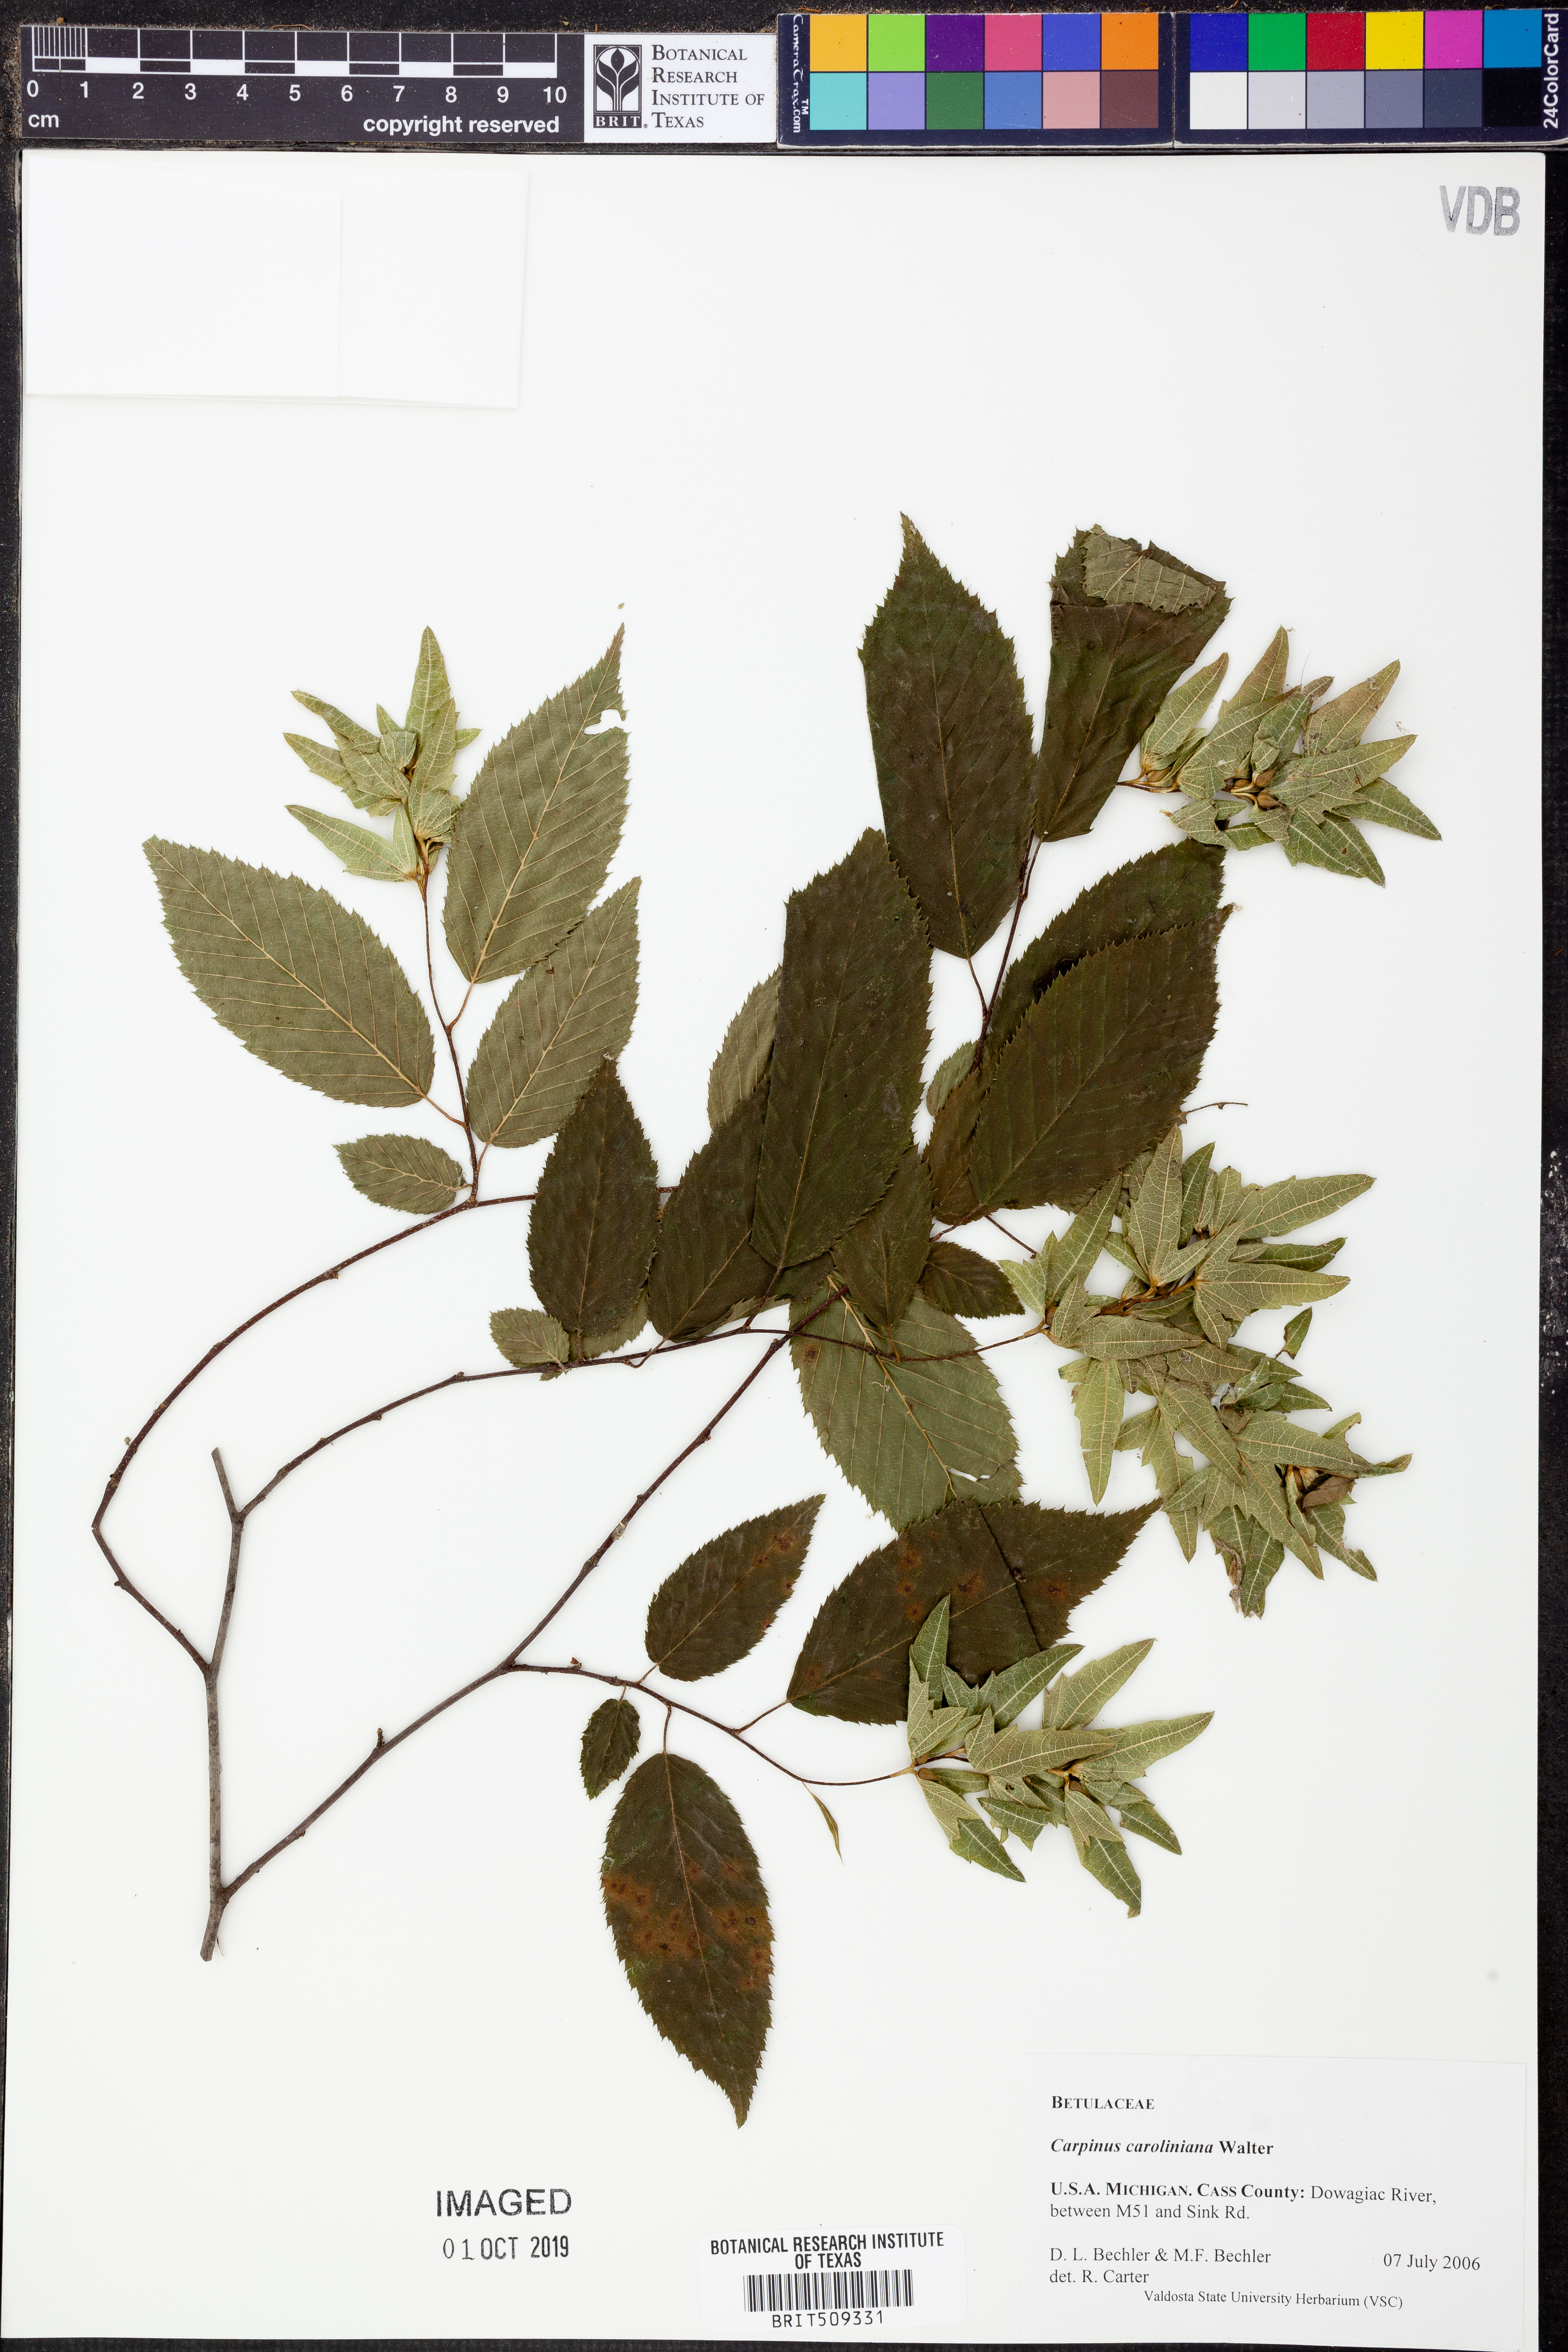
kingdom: Plantae
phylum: Tracheophyta
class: Magnoliopsida
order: Fagales
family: Betulaceae
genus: Carpinus
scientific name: Carpinus caroliniana
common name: American hornbeam
